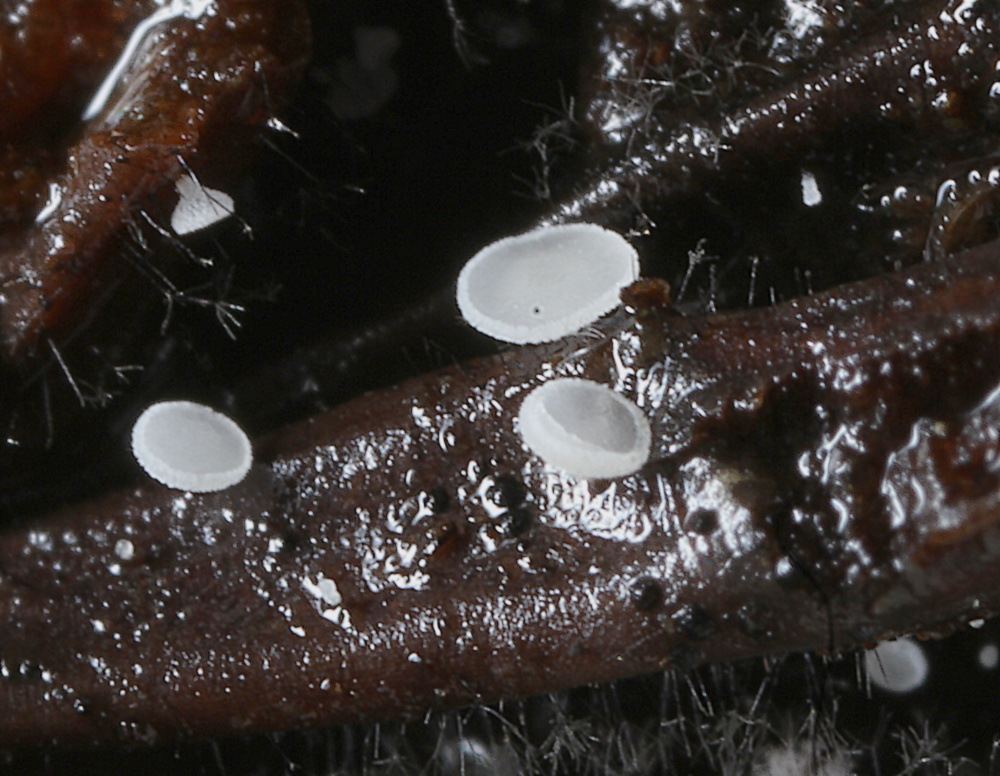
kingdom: Fungi
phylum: Ascomycota
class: Leotiomycetes
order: Helotiales
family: Hyaloscyphaceae
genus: Cistella
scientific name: Cistella acuum
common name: nåle-sirskive
